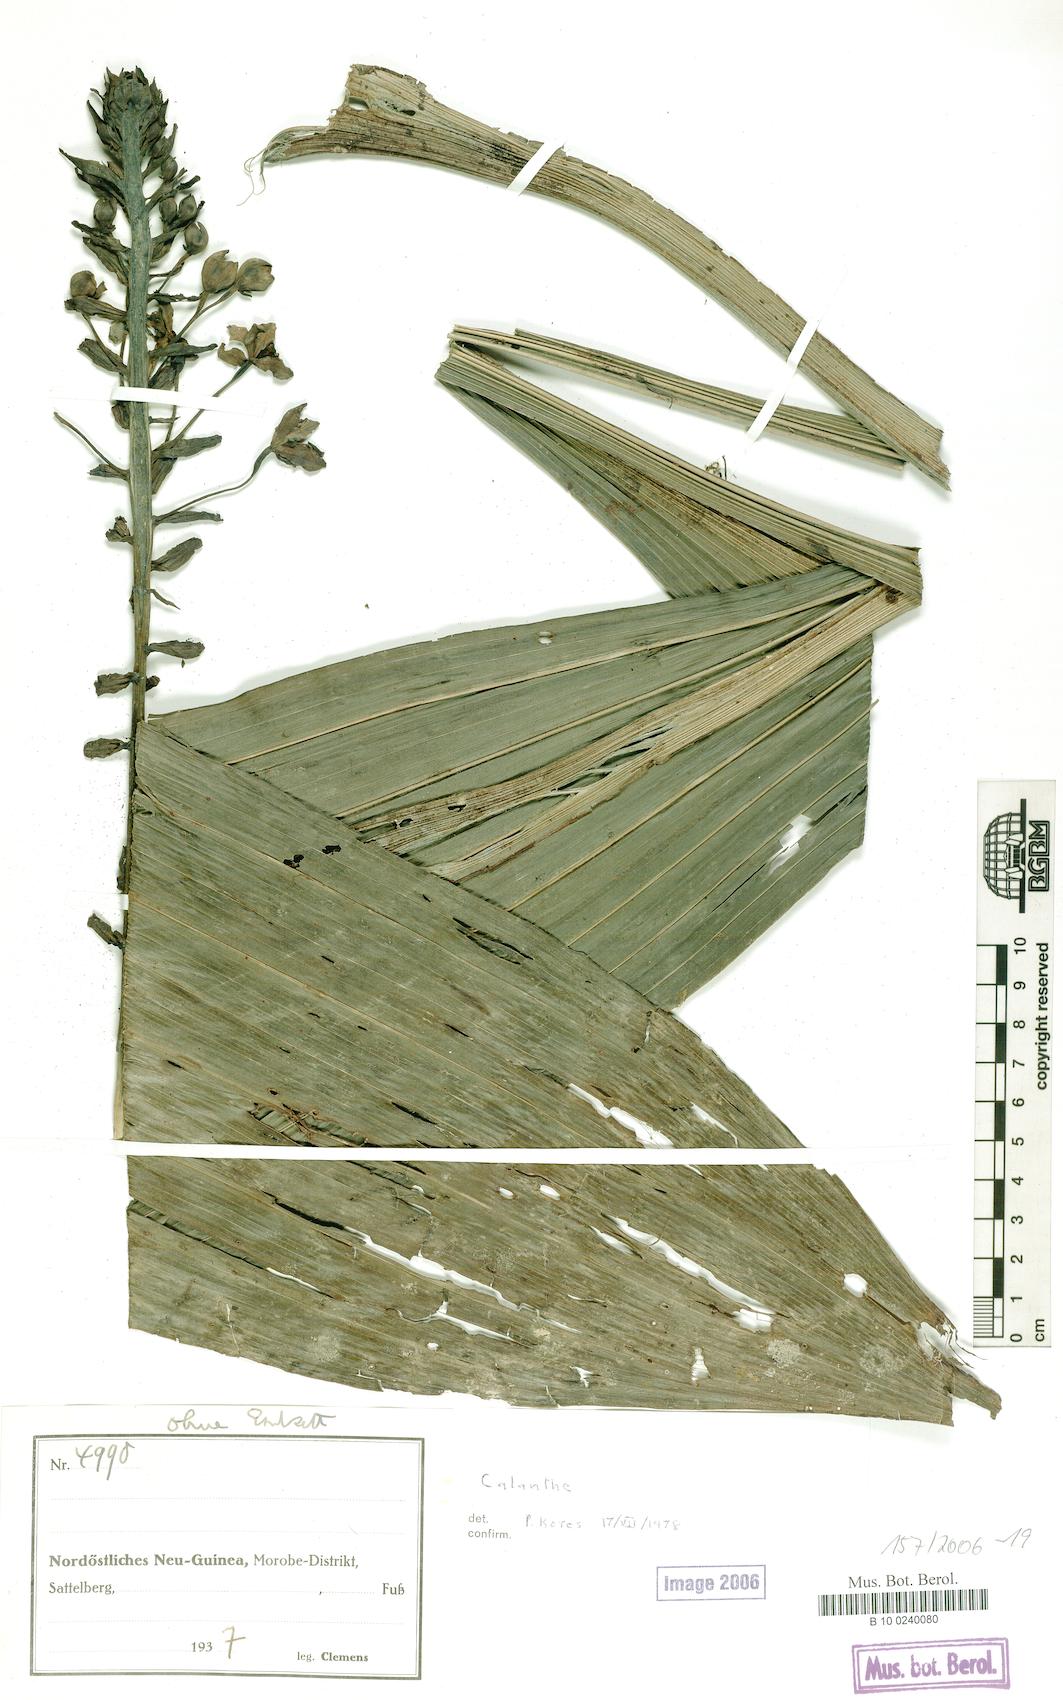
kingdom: Plantae
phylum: Tracheophyta
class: Liliopsida
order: Asparagales
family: Orchidaceae
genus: Calanthe
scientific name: Calanthe
